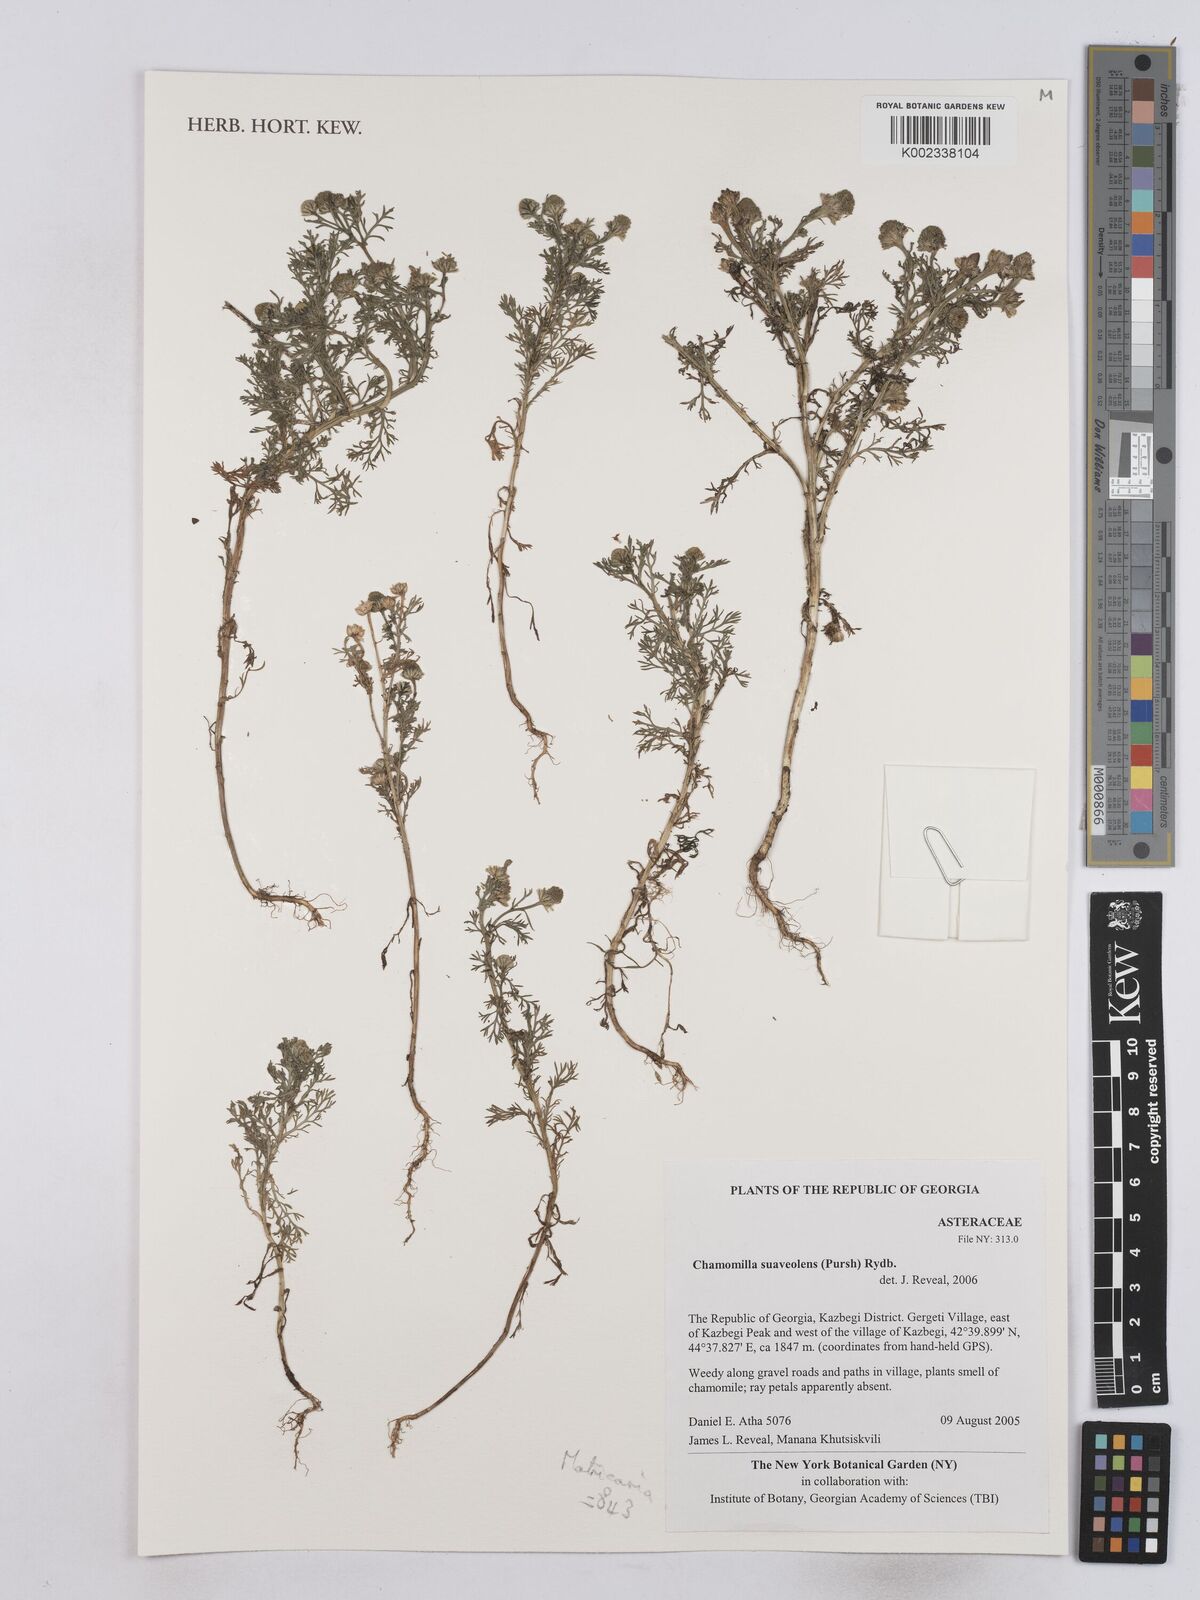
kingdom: Plantae
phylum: Tracheophyta
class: Magnoliopsida
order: Asterales
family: Asteraceae
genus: Matricaria
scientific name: Matricaria chamomilla
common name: Scented mayweed
